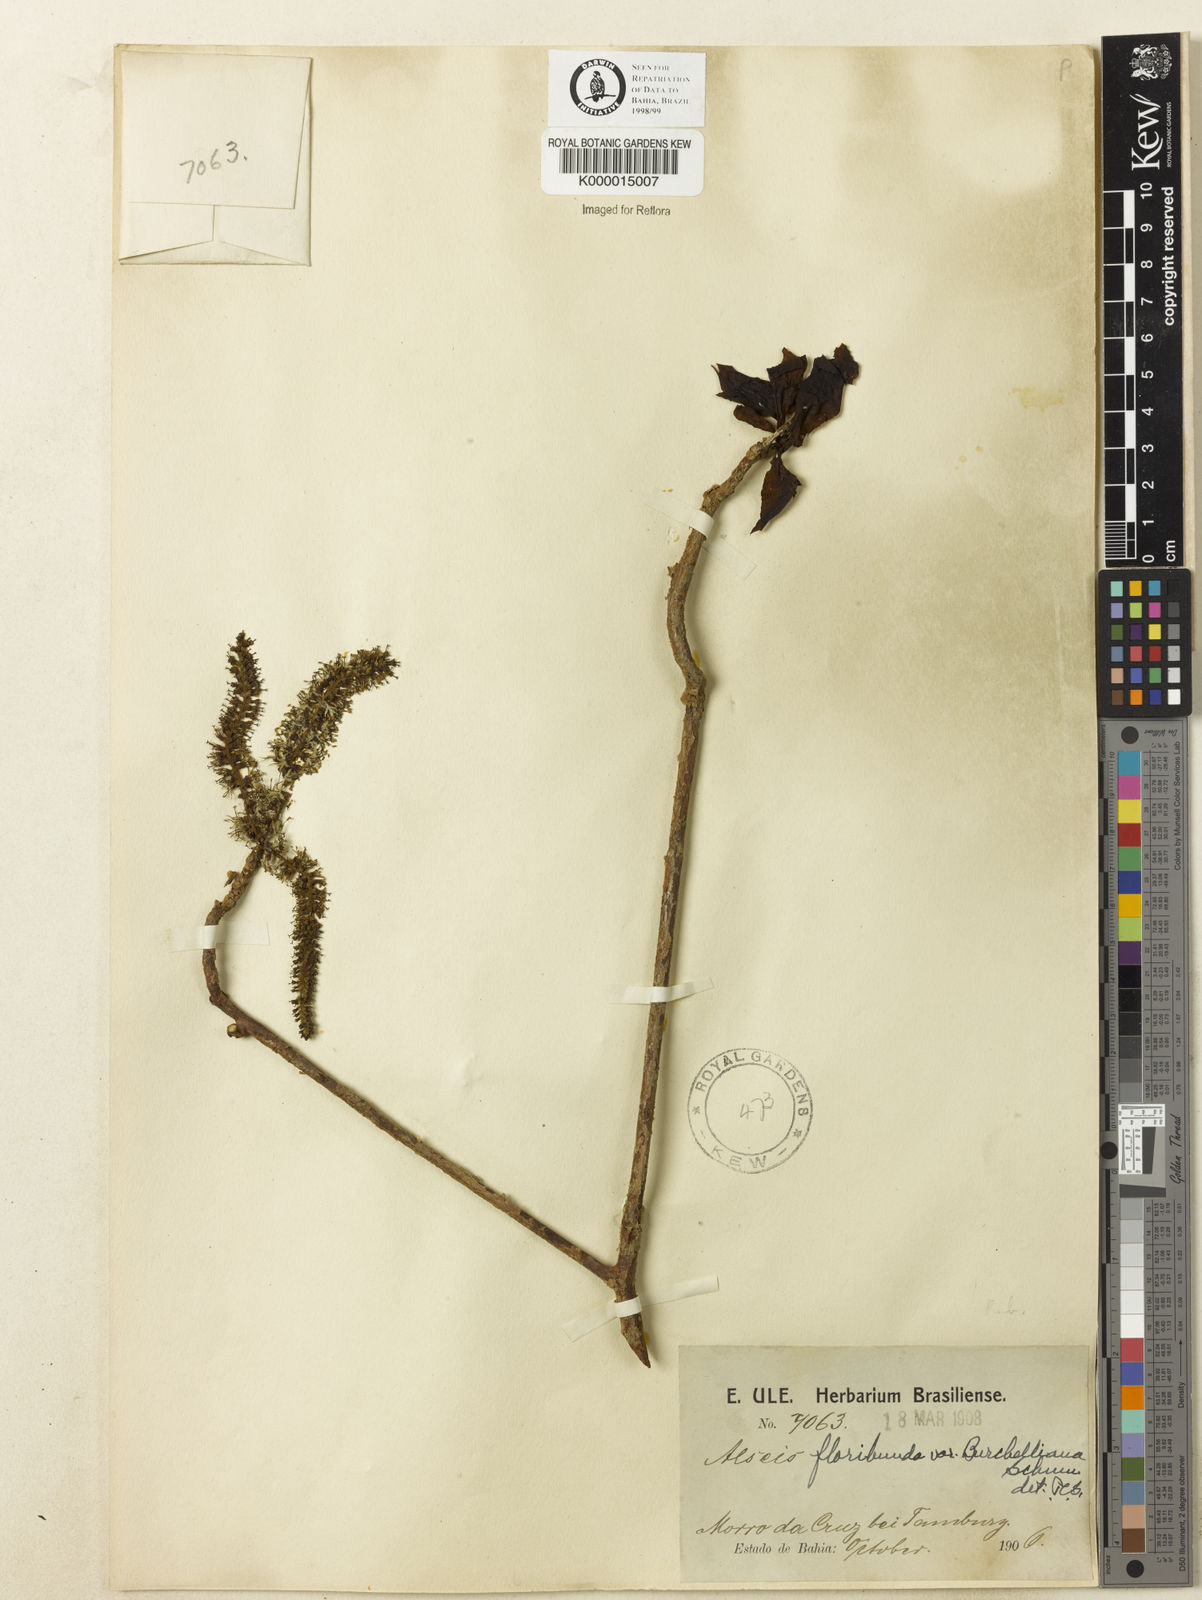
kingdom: Plantae
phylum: Tracheophyta
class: Magnoliopsida
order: Gentianales
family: Rubiaceae
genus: Alseis
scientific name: Alseis floribunda
